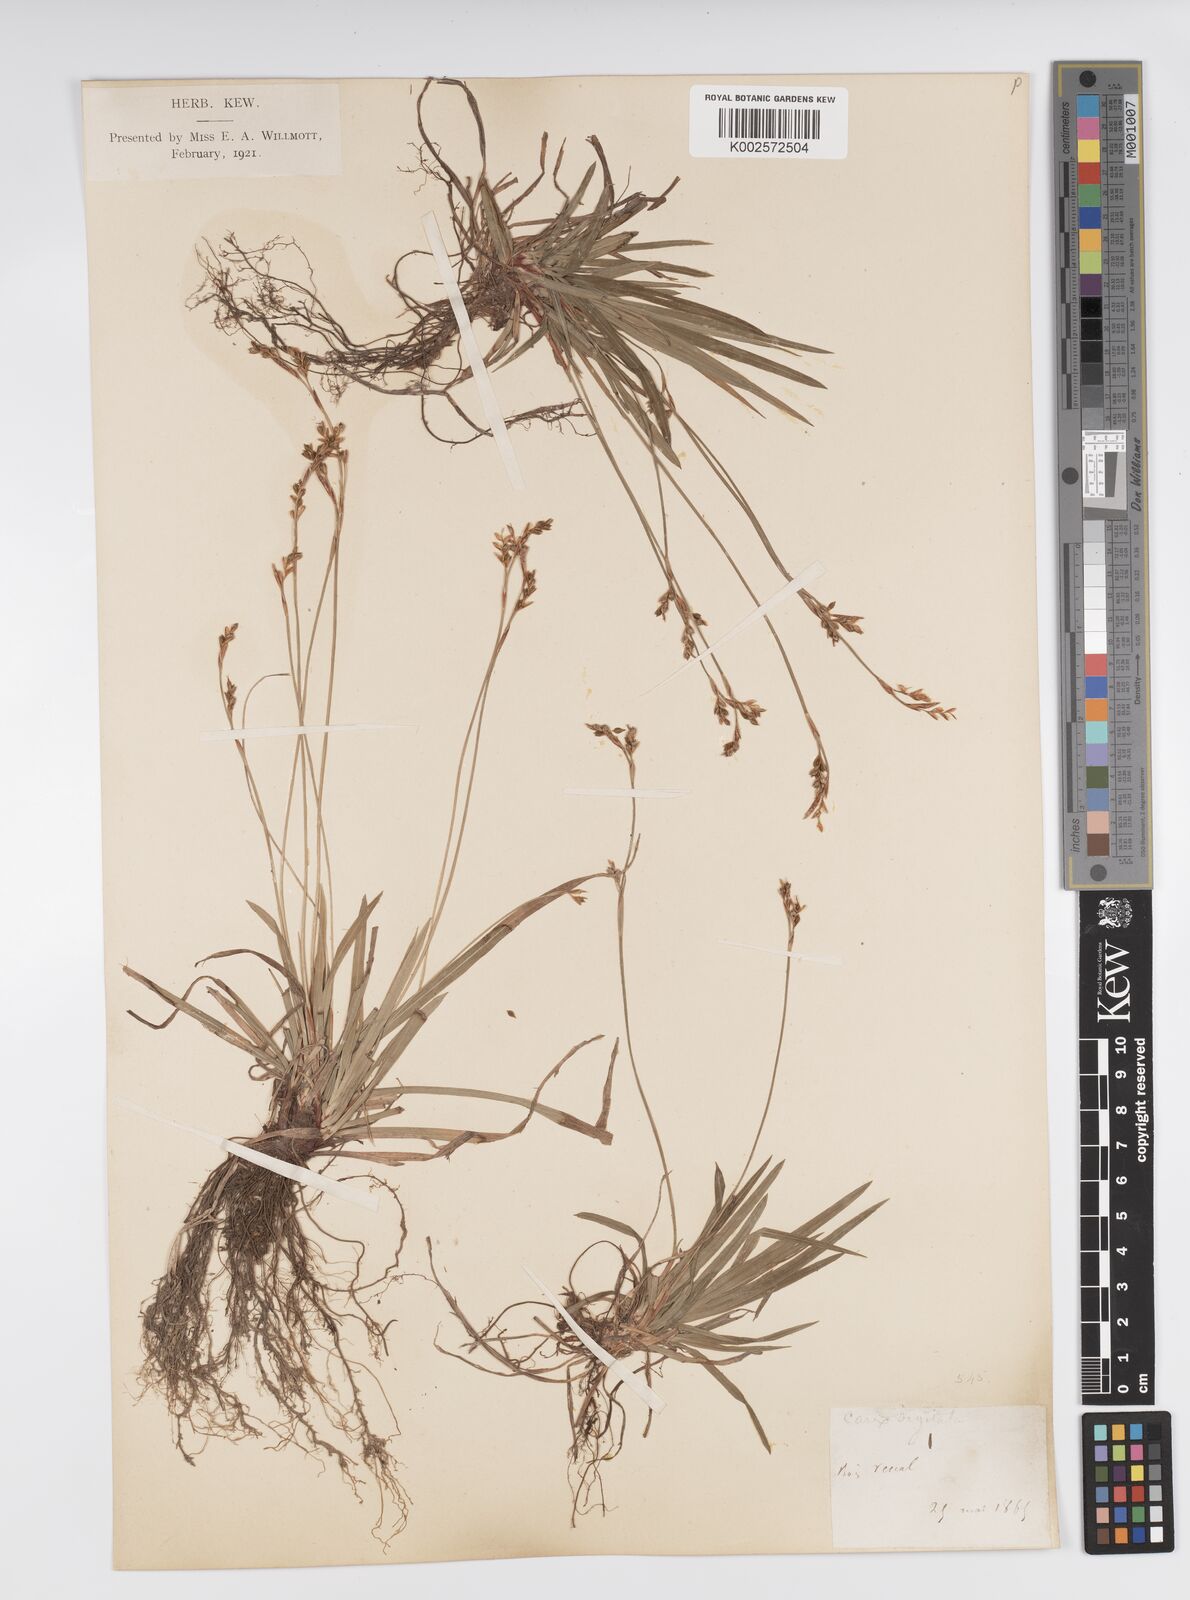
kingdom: Plantae
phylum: Tracheophyta
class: Liliopsida
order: Poales
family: Cyperaceae
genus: Carex
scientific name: Carex digitata
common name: Fingered sedge
